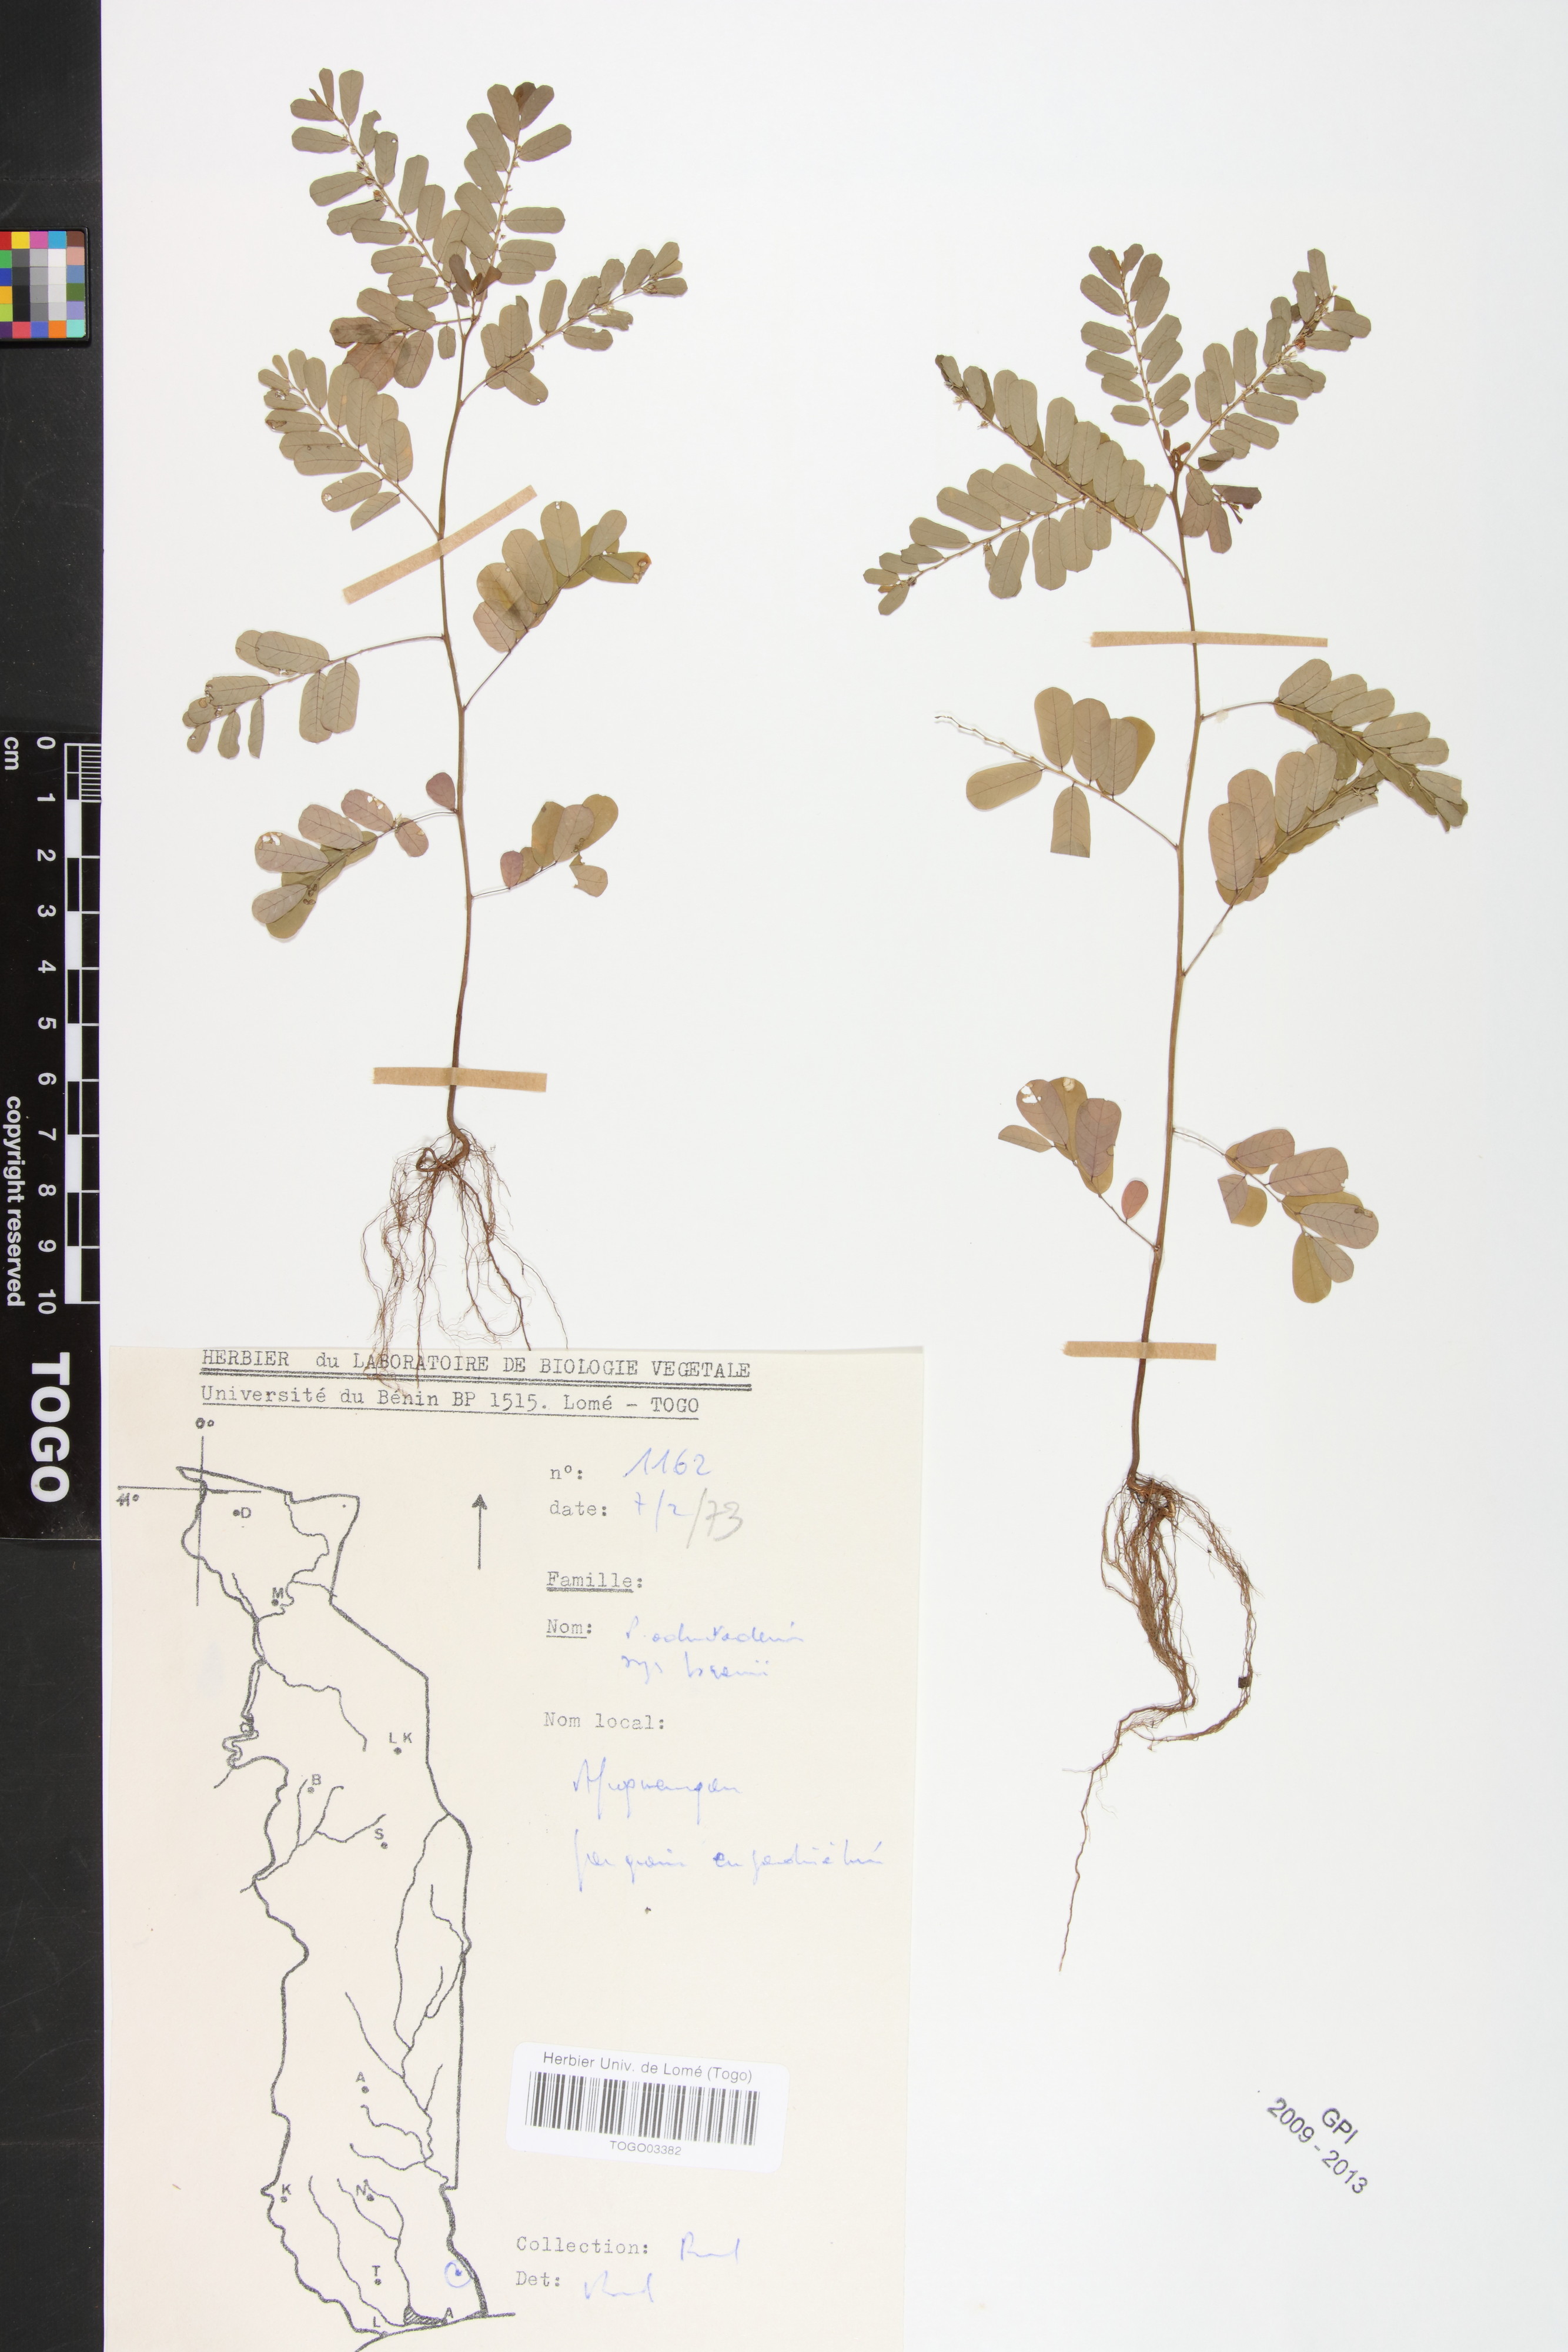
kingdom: Plantae
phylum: Tracheophyta
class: Magnoliopsida
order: Malpighiales
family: Phyllanthaceae
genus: Phyllanthus
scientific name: Phyllanthus odontadenius
